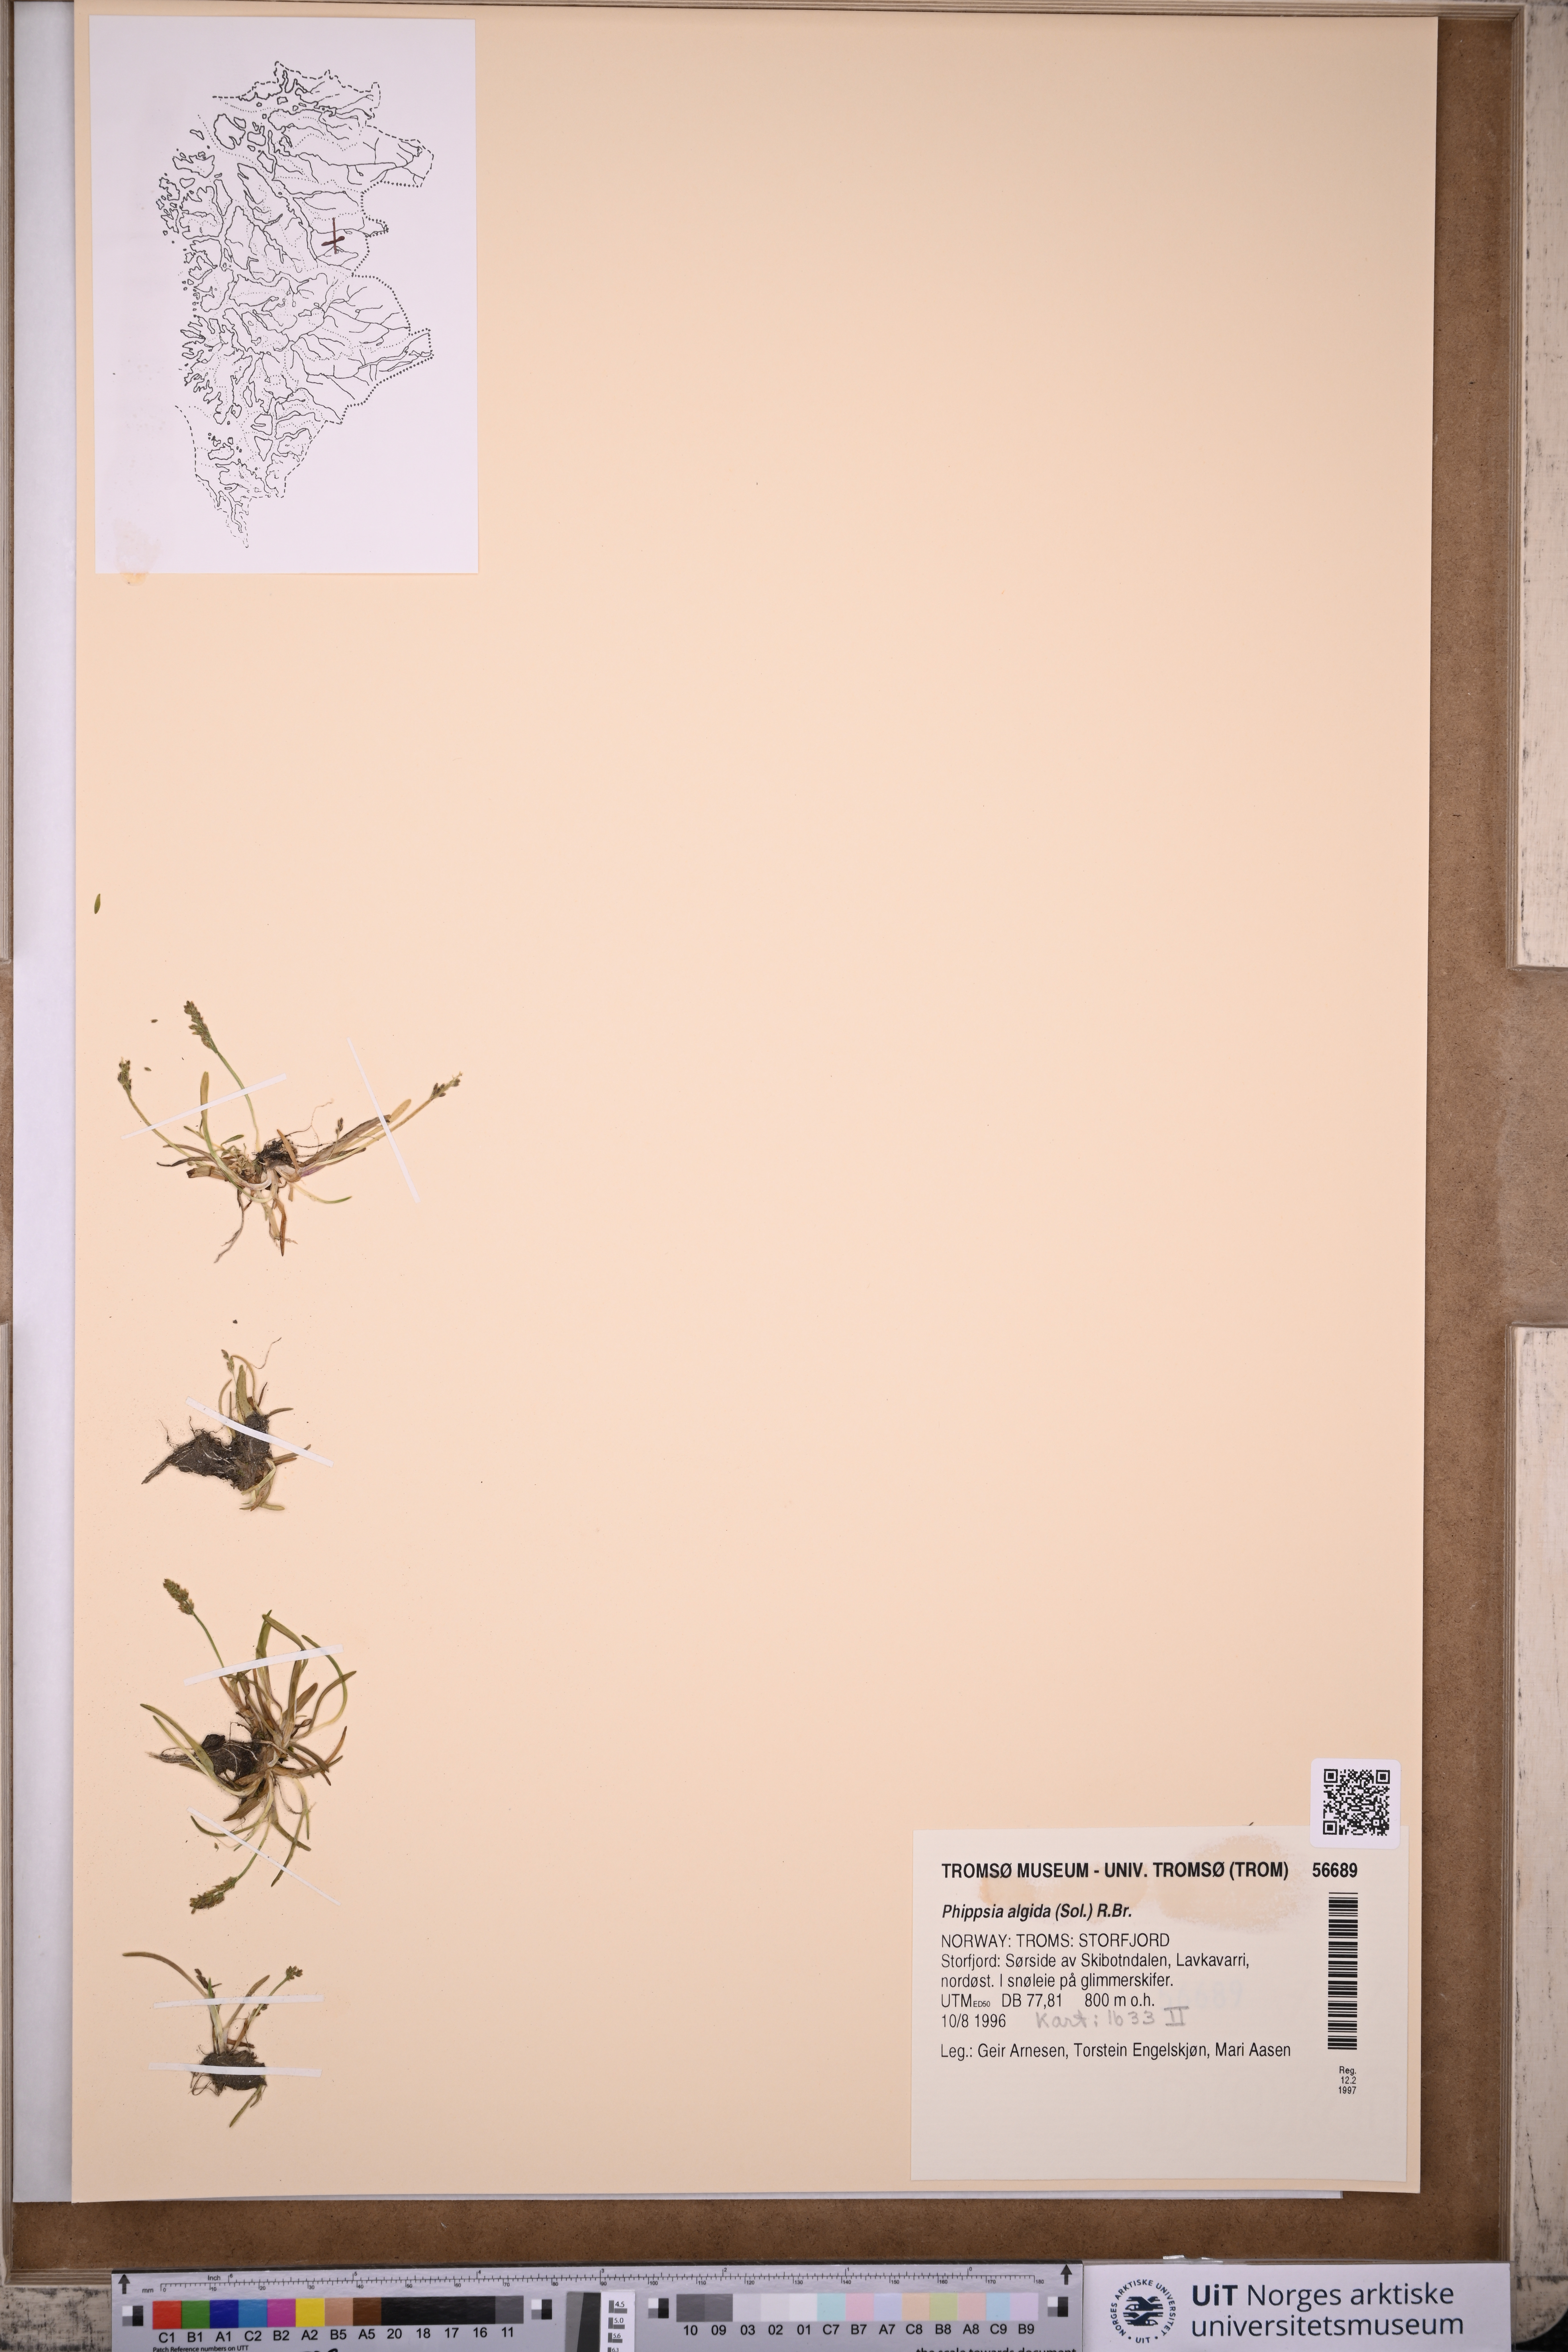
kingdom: Plantae
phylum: Tracheophyta
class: Liliopsida
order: Poales
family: Poaceae
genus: Phippsia
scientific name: Phippsia algida
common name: Ice grass
